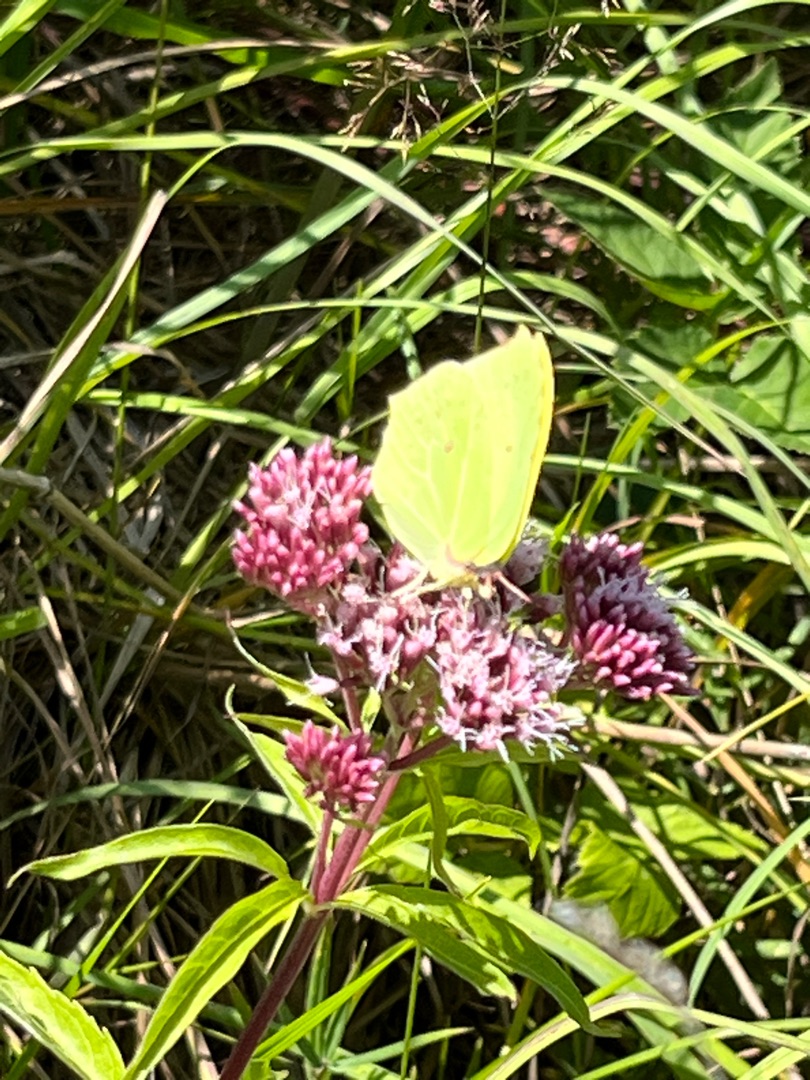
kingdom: Animalia
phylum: Arthropoda
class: Insecta
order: Lepidoptera
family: Pieridae
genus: Gonepteryx
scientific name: Gonepteryx rhamni
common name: Citronsommerfugl
